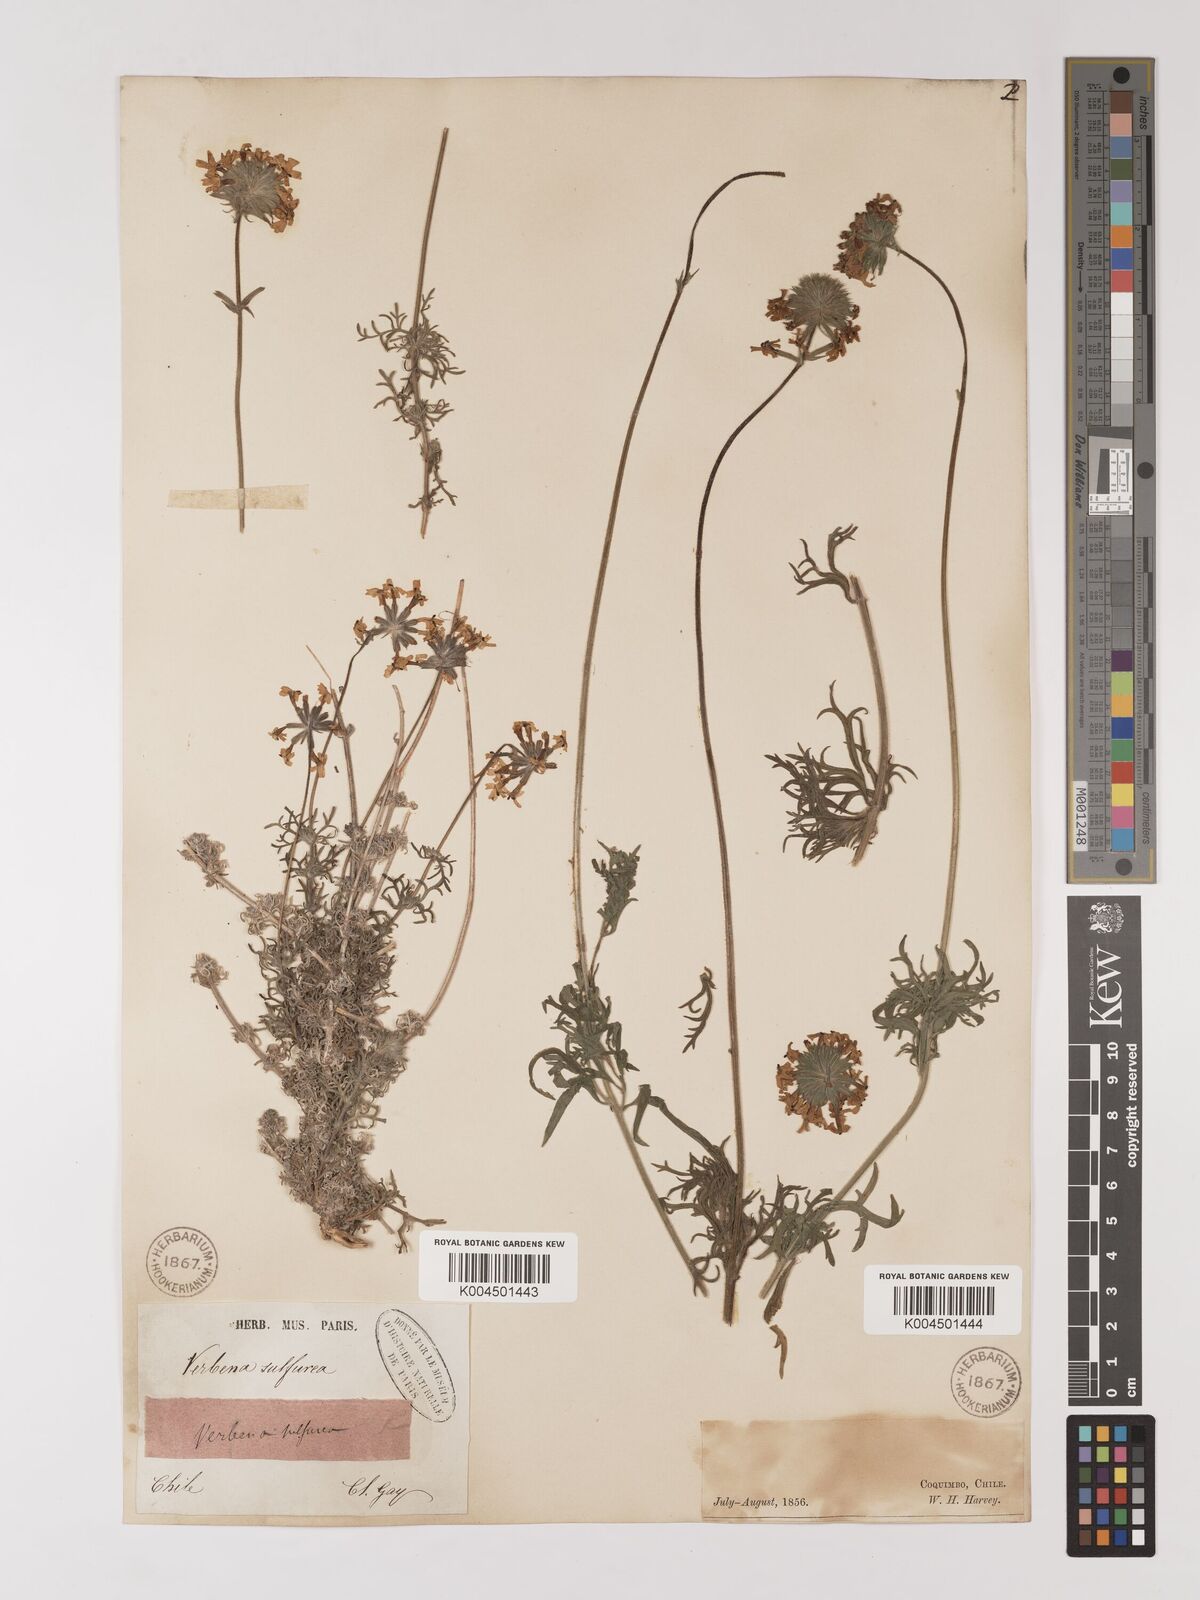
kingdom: Plantae
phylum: Tracheophyta
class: Magnoliopsida
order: Lamiales
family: Verbenaceae
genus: Verbena
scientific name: Verbena sulphurea
